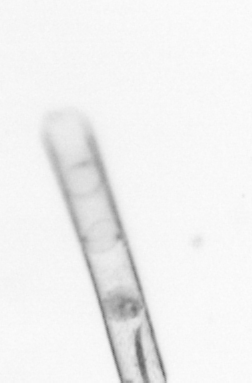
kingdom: Chromista
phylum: Ochrophyta
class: Bacillariophyceae
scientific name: Bacillariophyceae
